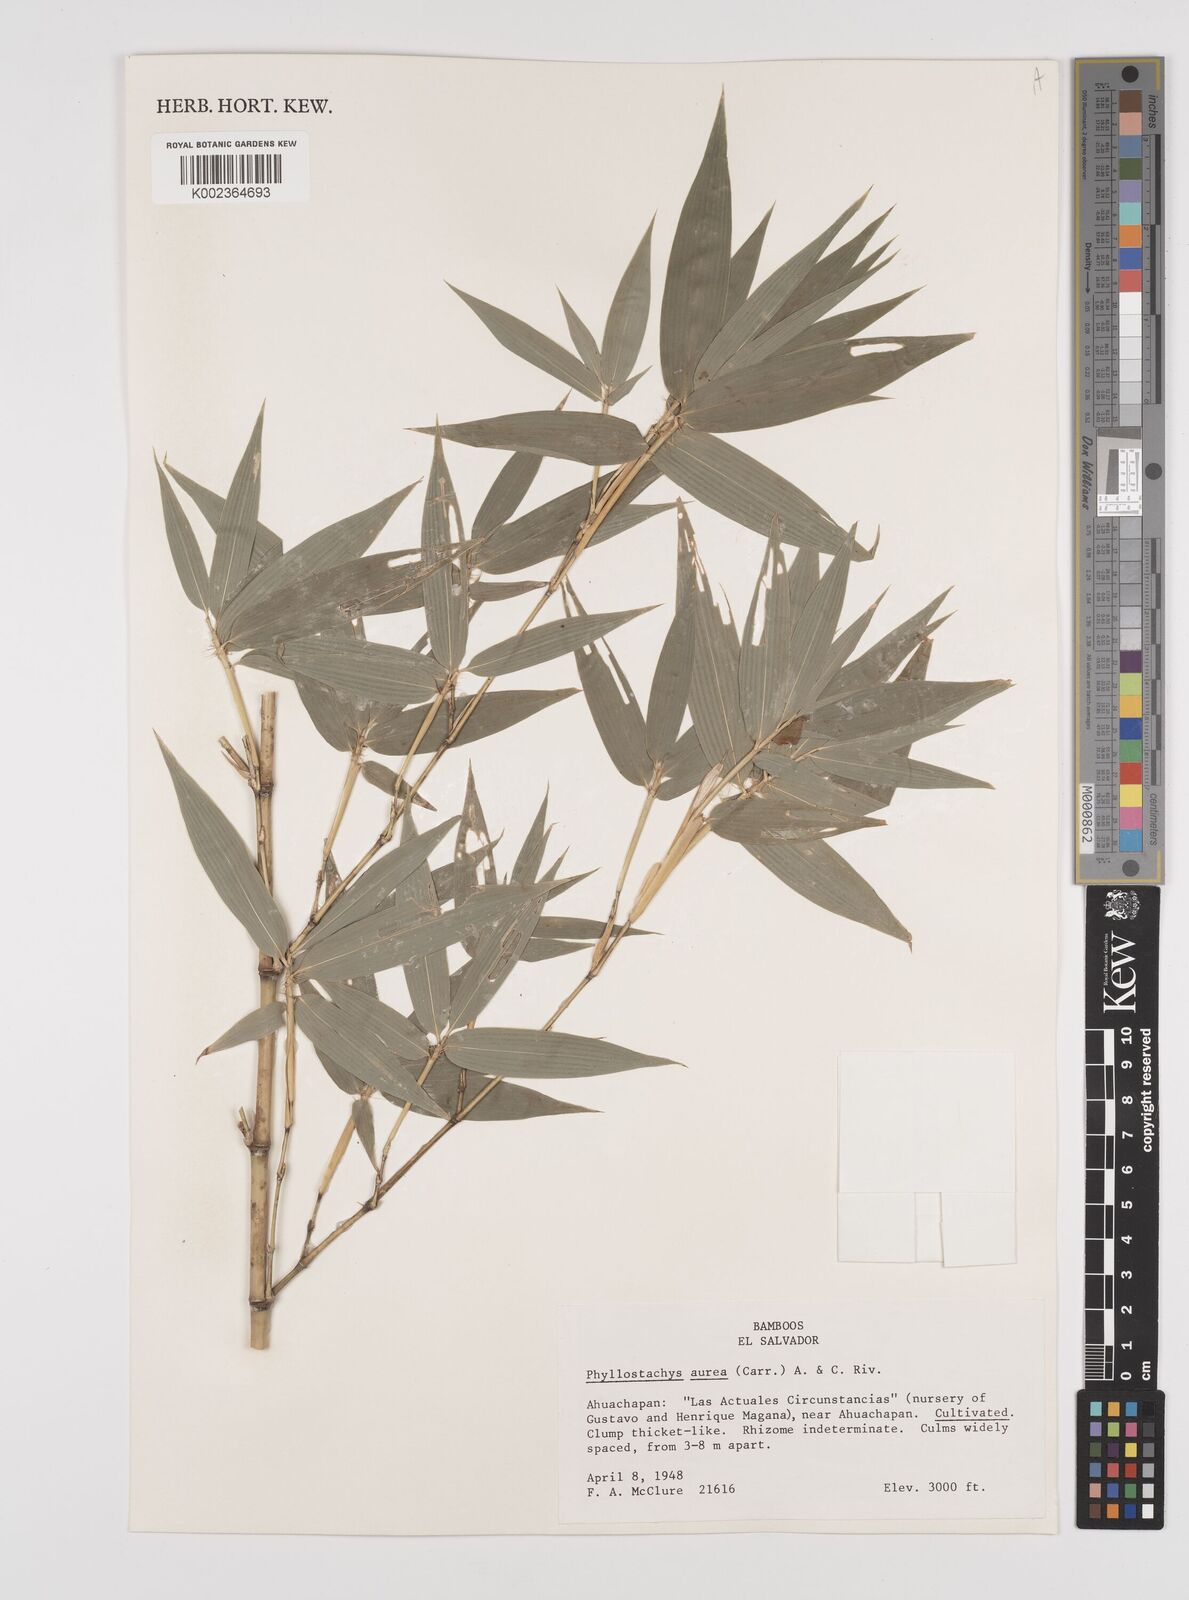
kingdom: Plantae
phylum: Tracheophyta
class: Liliopsida
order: Poales
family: Poaceae
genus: Phyllostachys
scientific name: Phyllostachys aurea
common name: Golden bamboo
